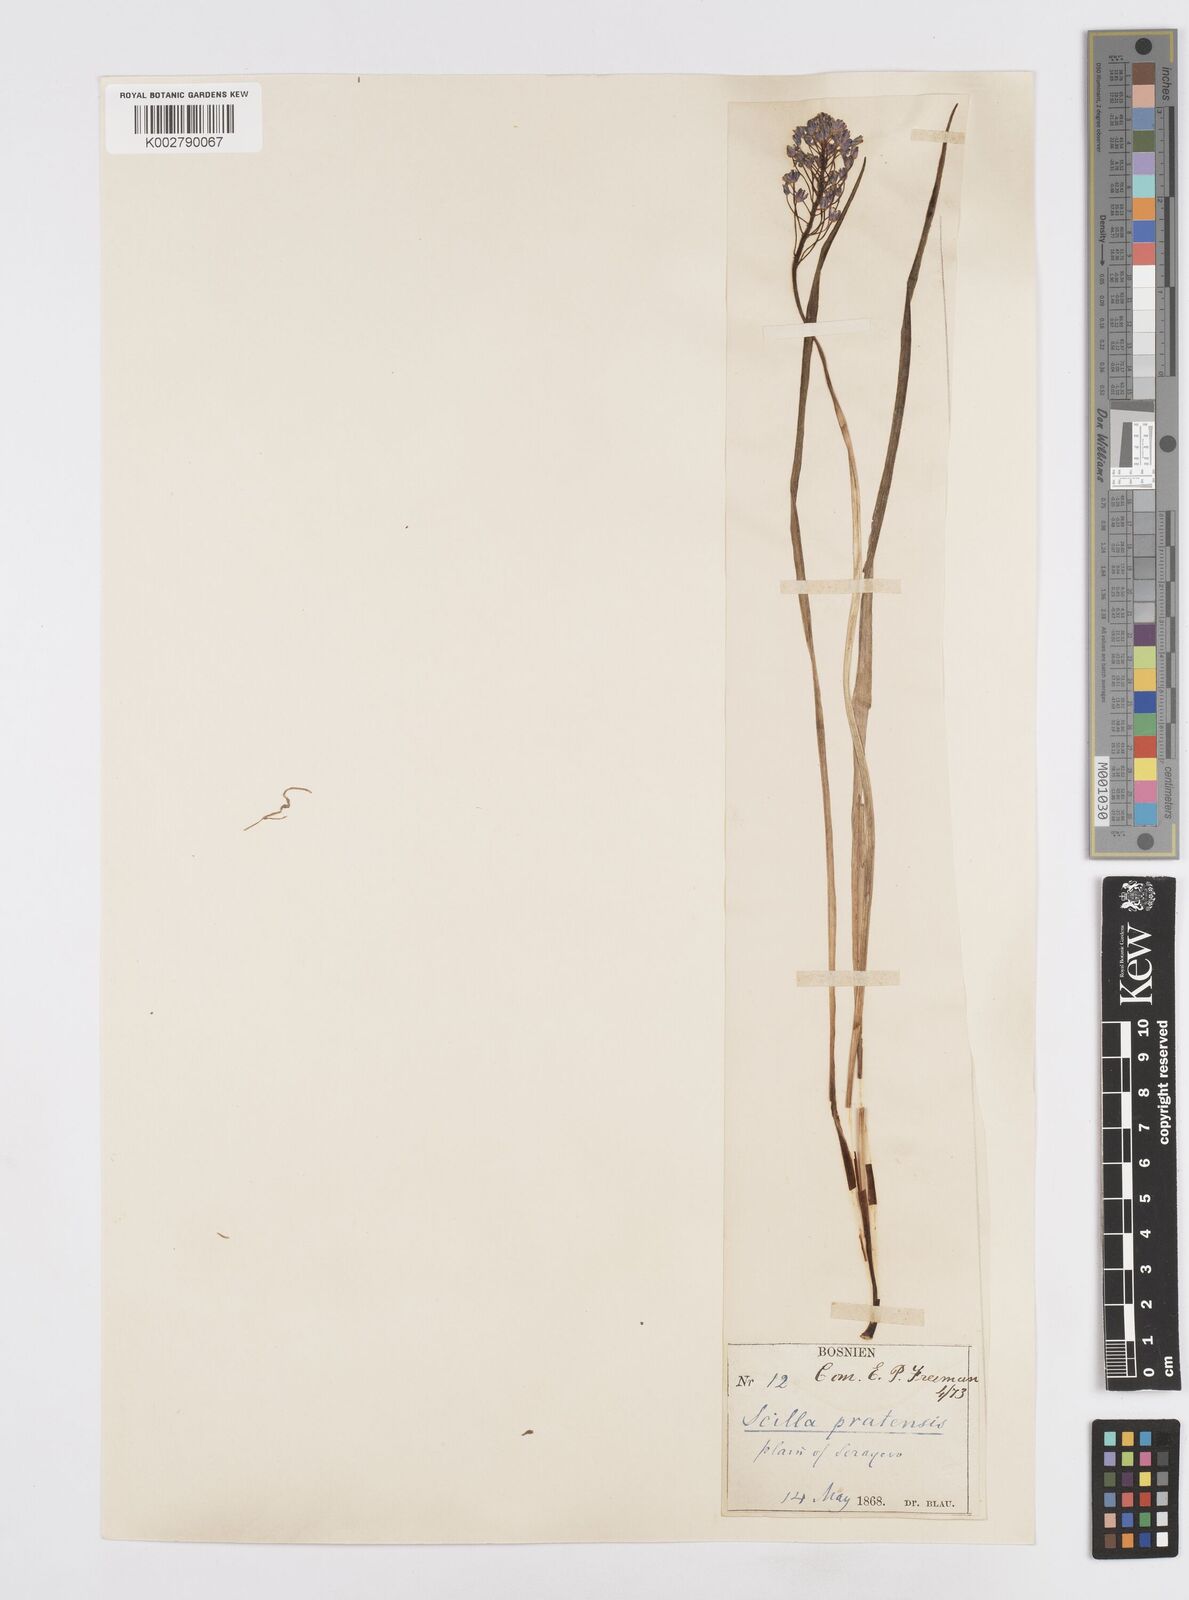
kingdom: Plantae
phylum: Tracheophyta
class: Liliopsida
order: Asparagales
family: Asparagaceae
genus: Scilla
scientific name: Scilla litardierei
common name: Amethyst meadow squill
